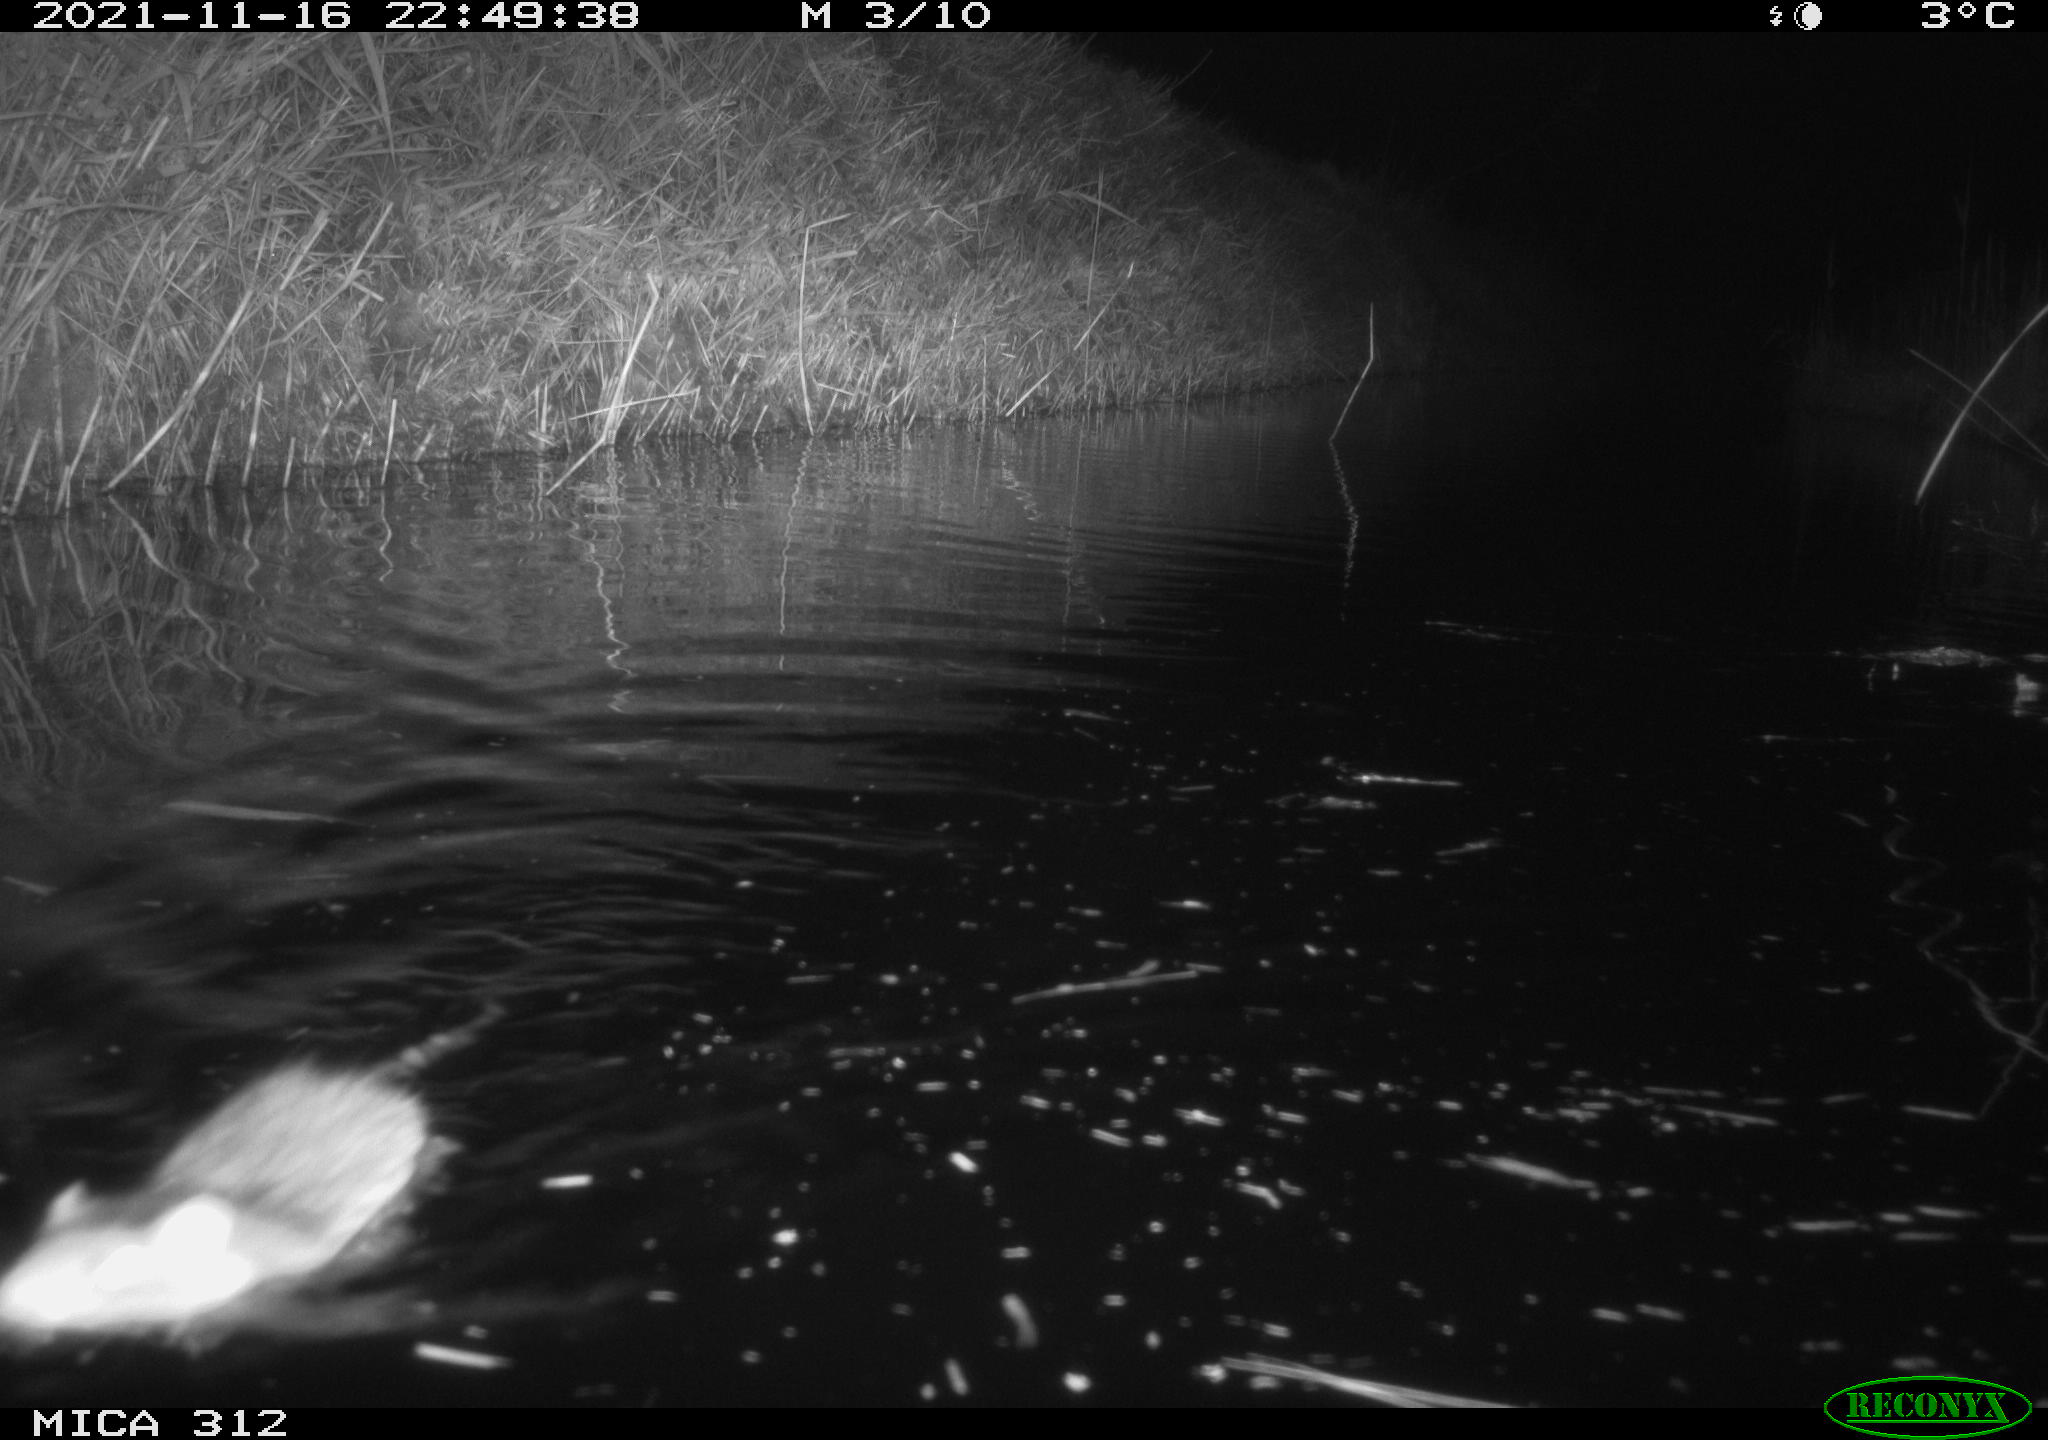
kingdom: Animalia
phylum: Chordata
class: Mammalia
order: Rodentia
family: Muridae
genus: Rattus
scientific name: Rattus norvegicus
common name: Brown rat
